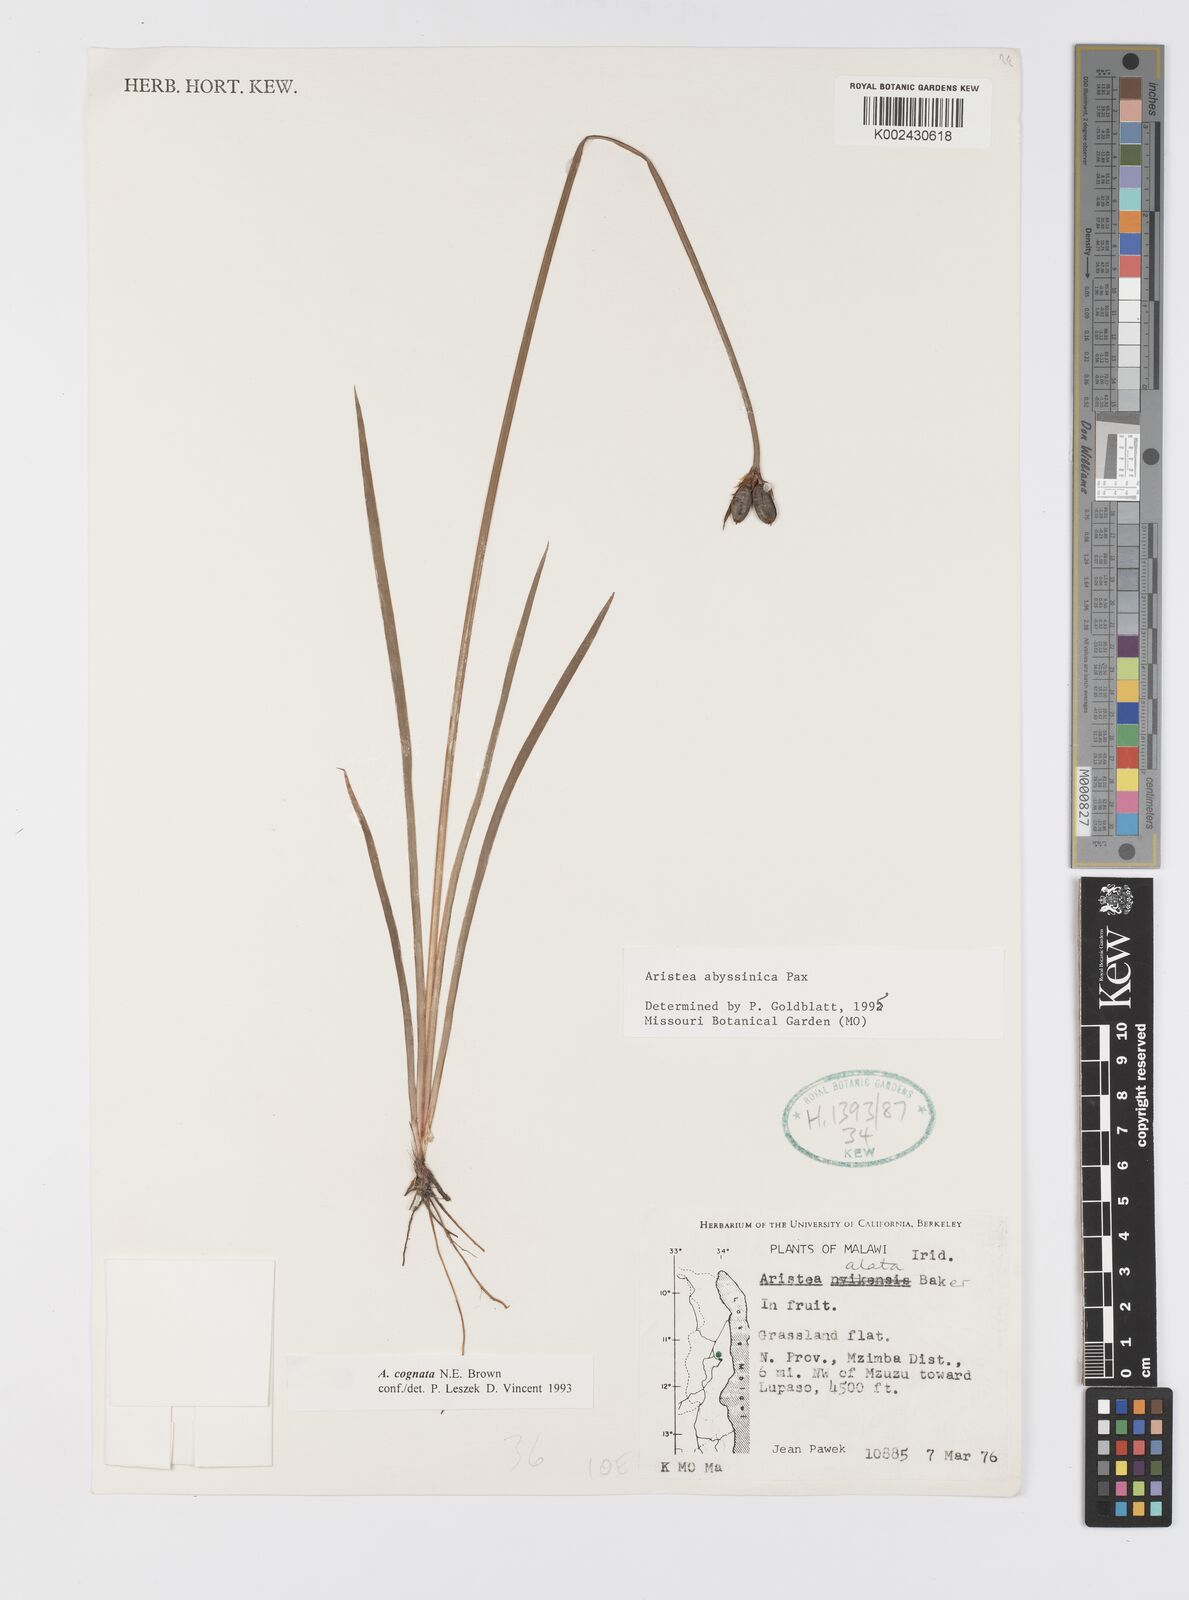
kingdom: Plantae
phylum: Tracheophyta
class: Liliopsida
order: Asparagales
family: Iridaceae
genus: Aristea
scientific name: Aristea abyssinica
